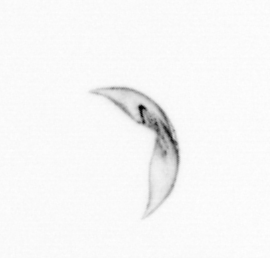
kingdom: Chromista
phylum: Ochrophyta
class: Bacillariophyceae
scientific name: Bacillariophyceae
